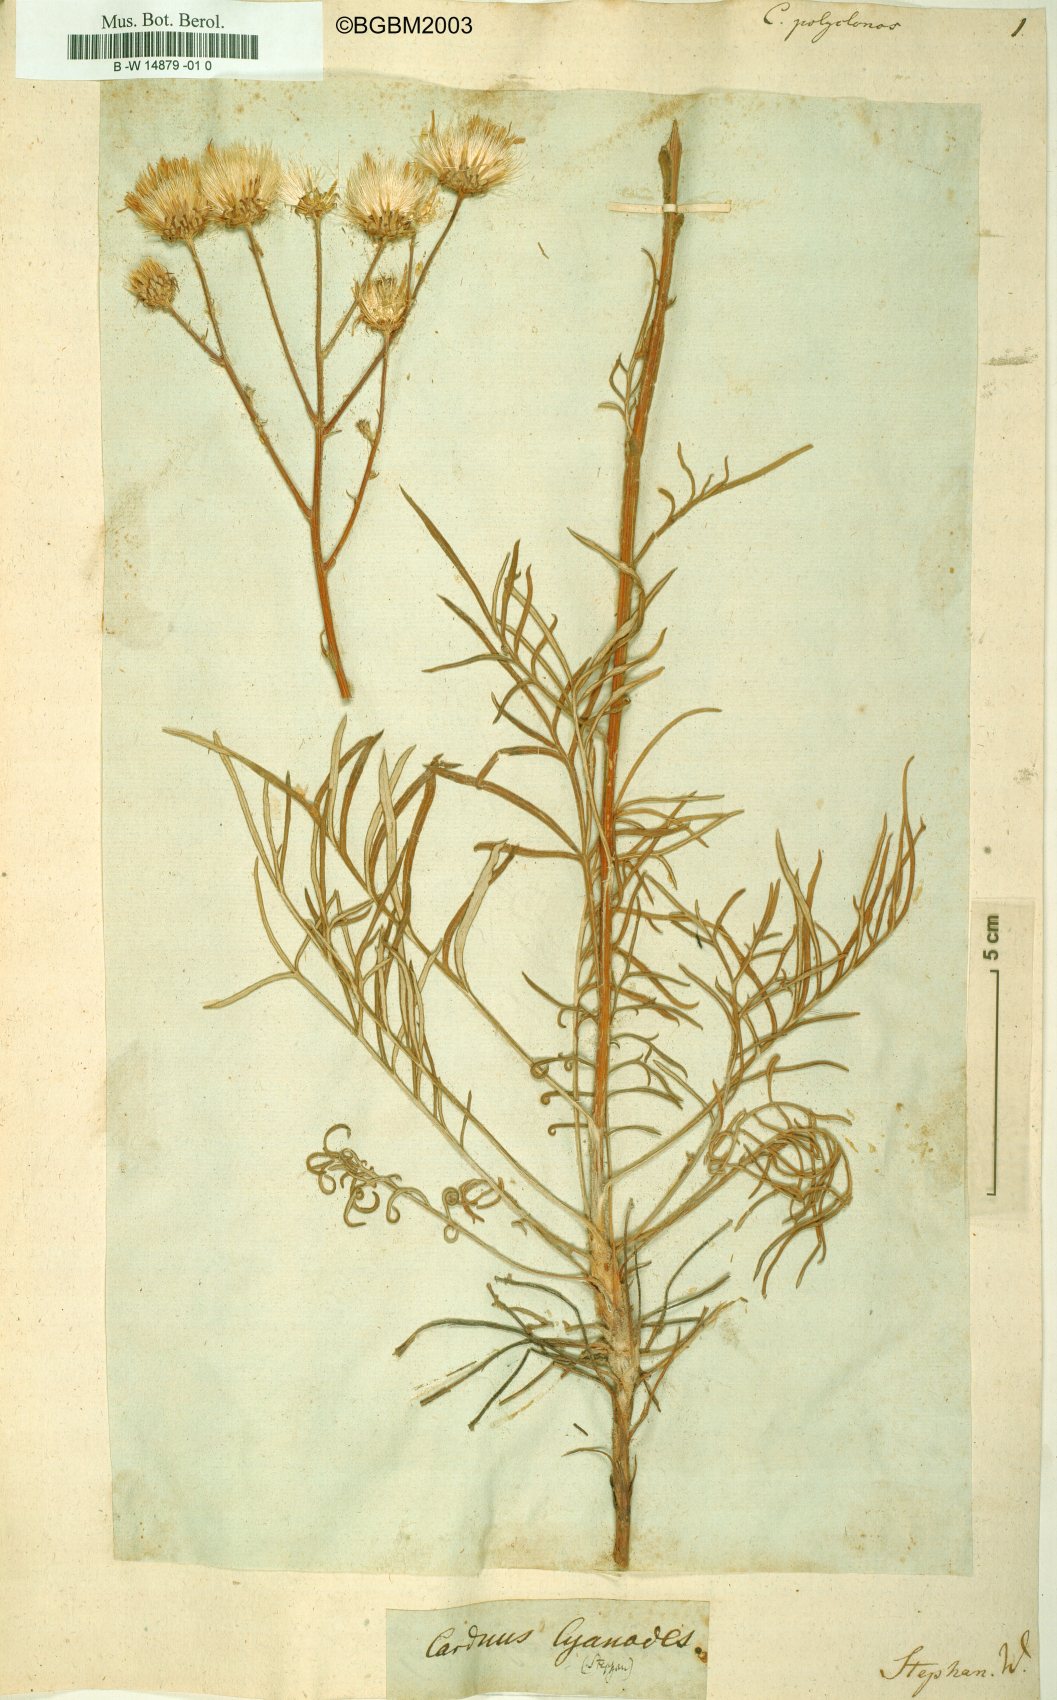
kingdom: Plantae
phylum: Tracheophyta
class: Magnoliopsida
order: Asterales
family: Asteraceae
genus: Jurinea
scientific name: Jurinea polyclonos
